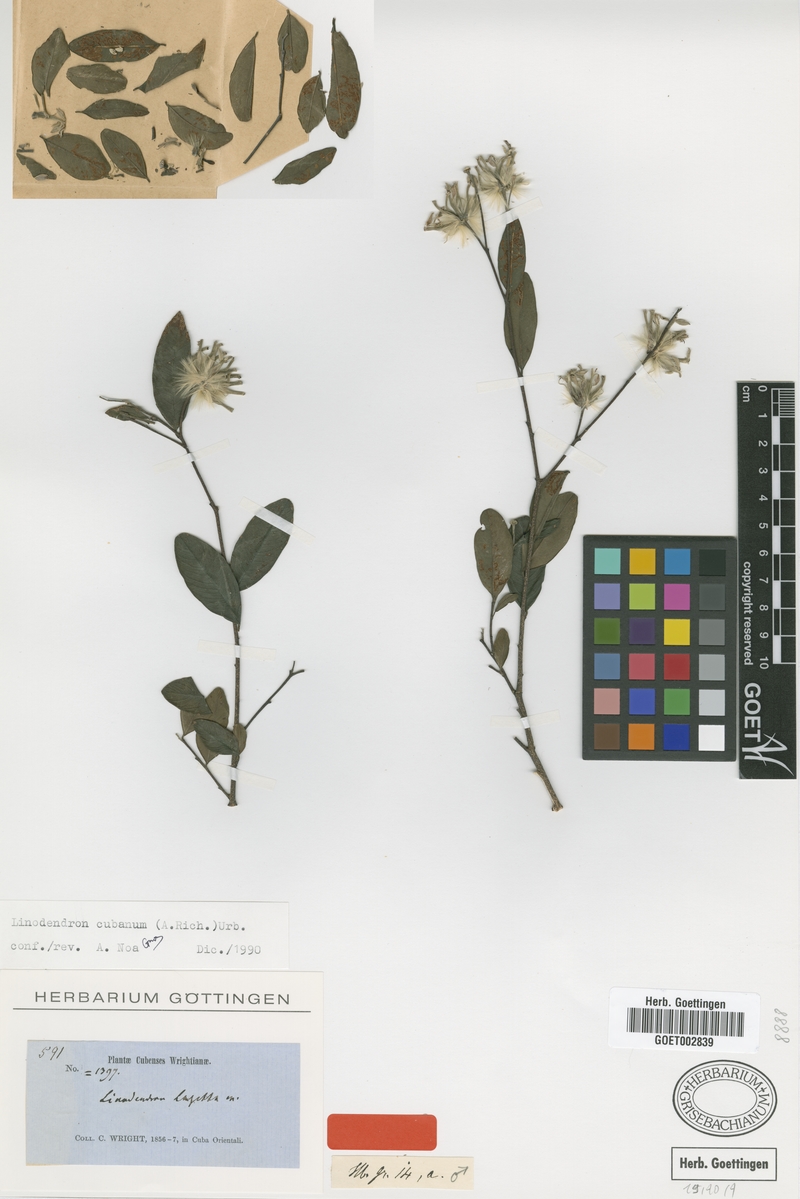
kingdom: Plantae
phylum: Tracheophyta
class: Magnoliopsida
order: Malvales
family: Thymelaeaceae
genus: Linodendron
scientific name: Linodendron cubanum
